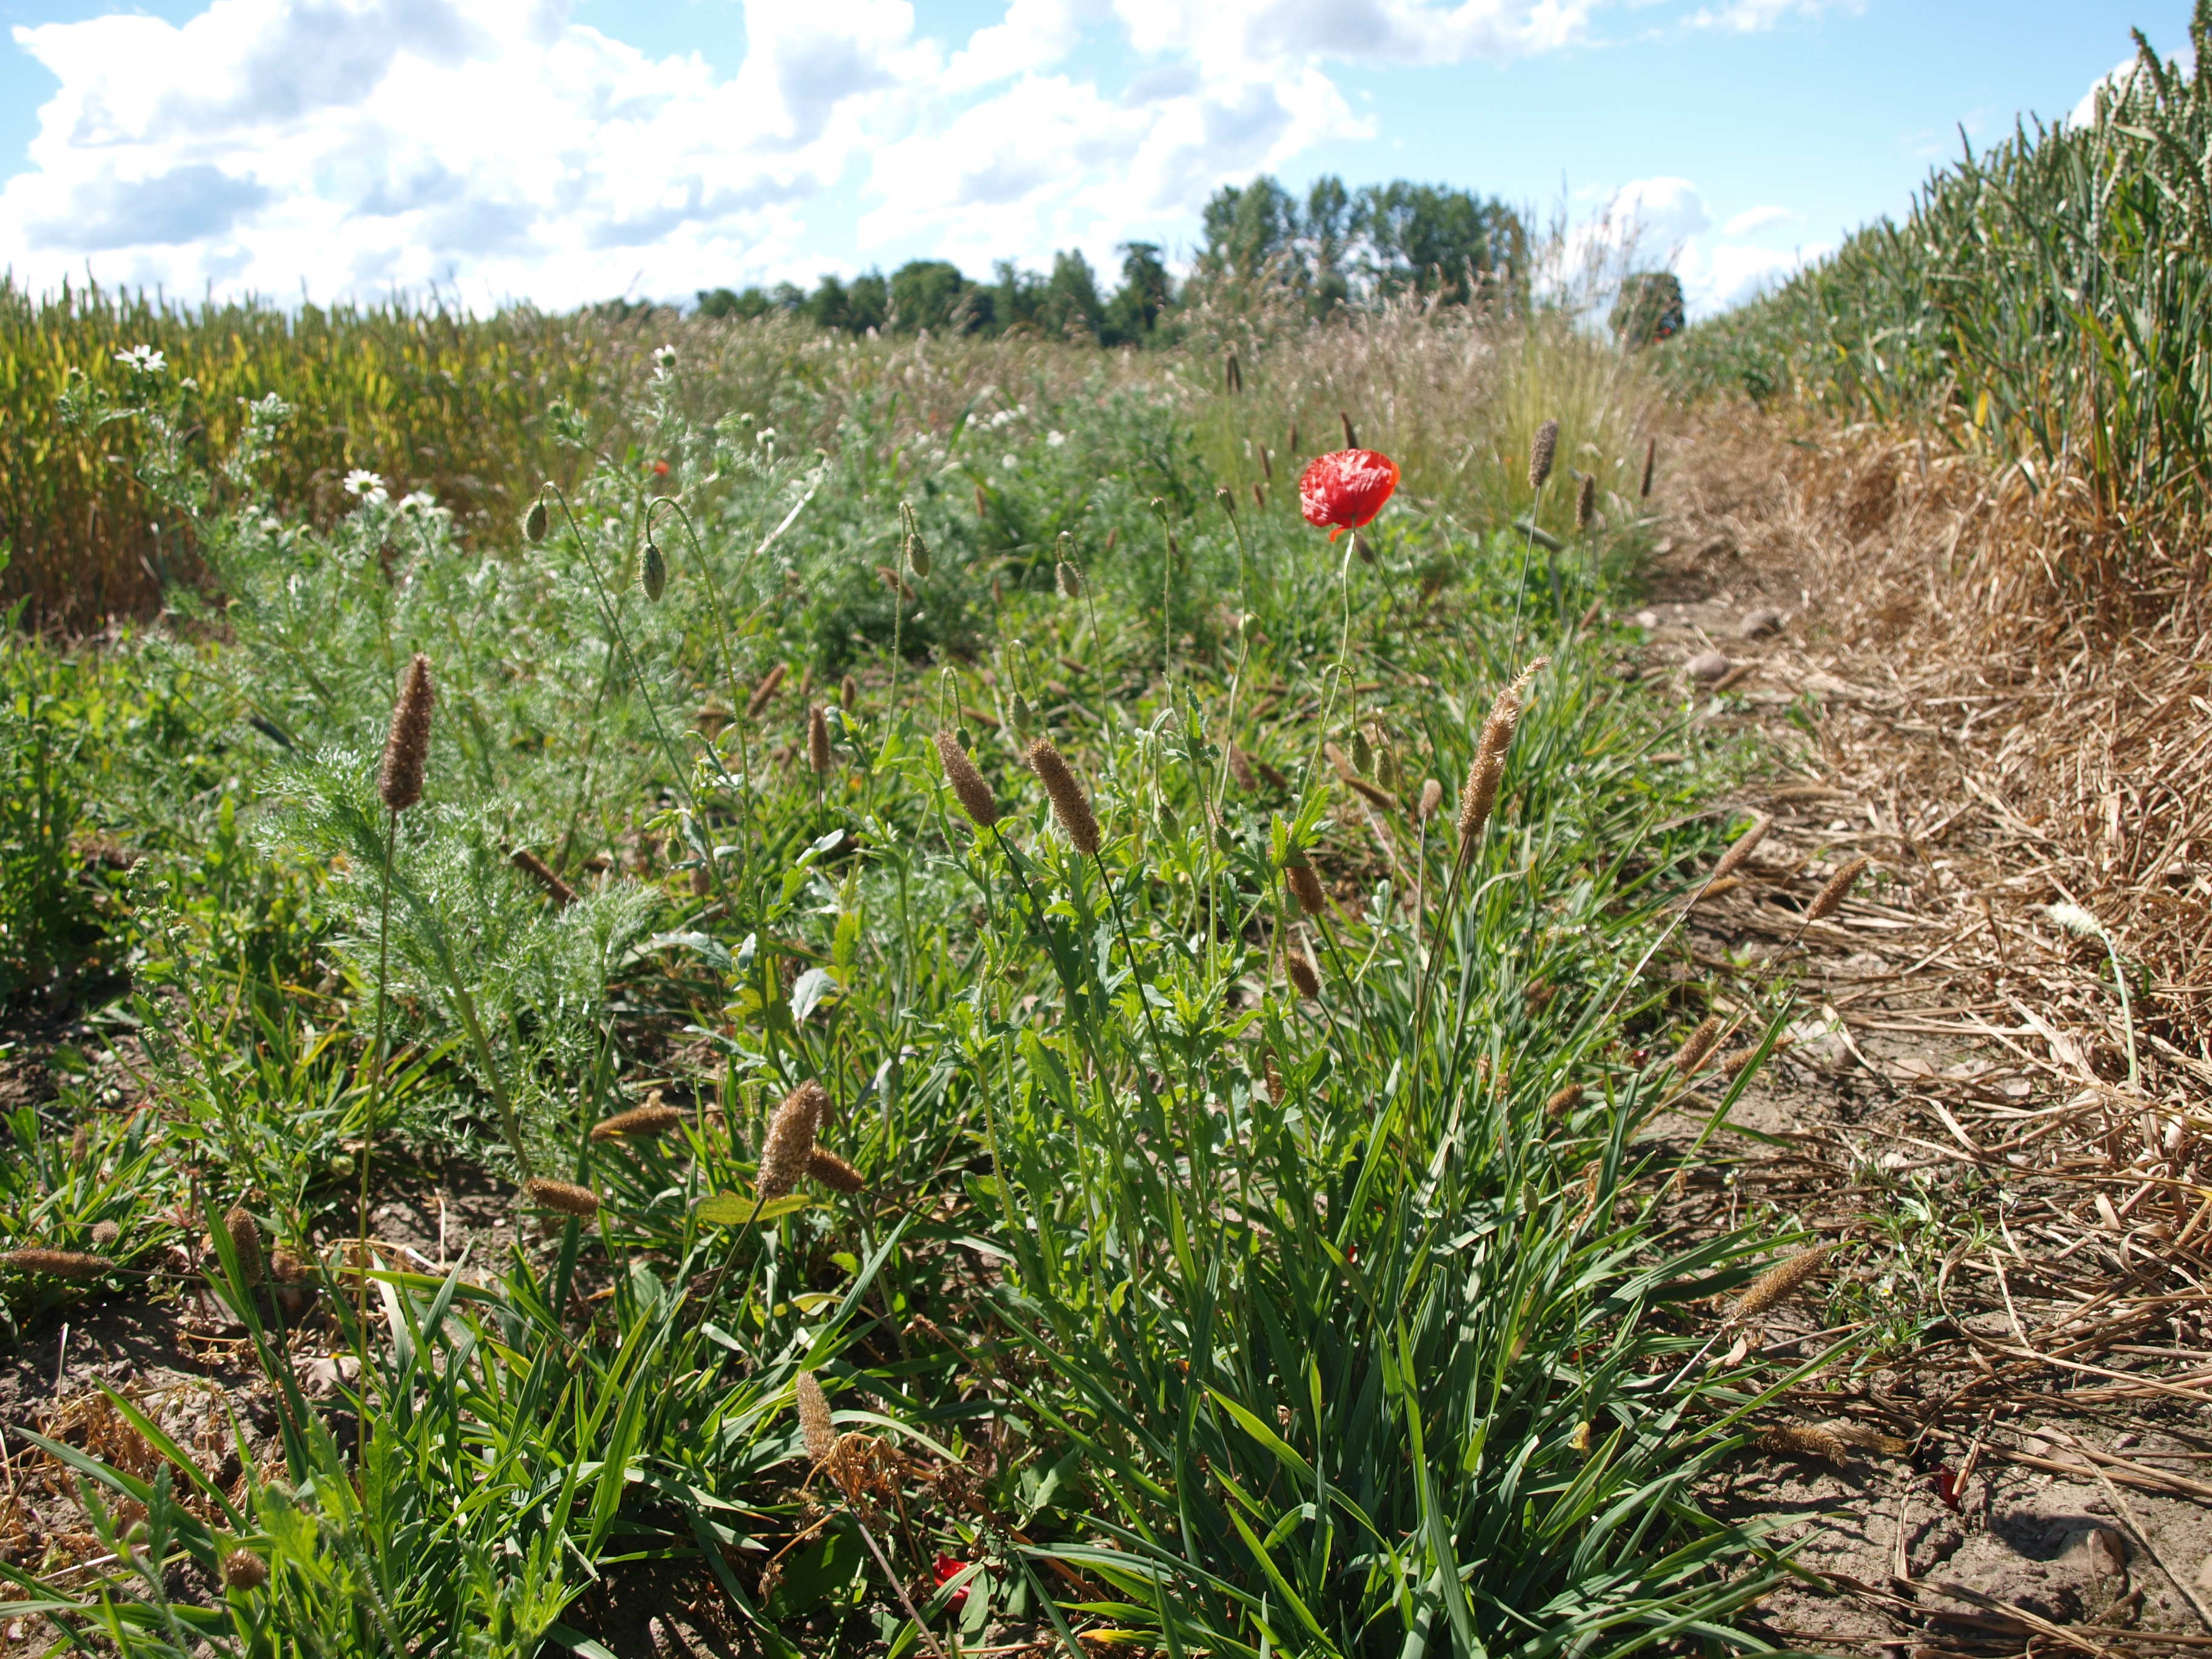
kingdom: Plantae
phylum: Tracheophyta
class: Liliopsida
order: Poales
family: Poaceae
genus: Phleum
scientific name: Phleum alpinum
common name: Alpine cat's-tail
